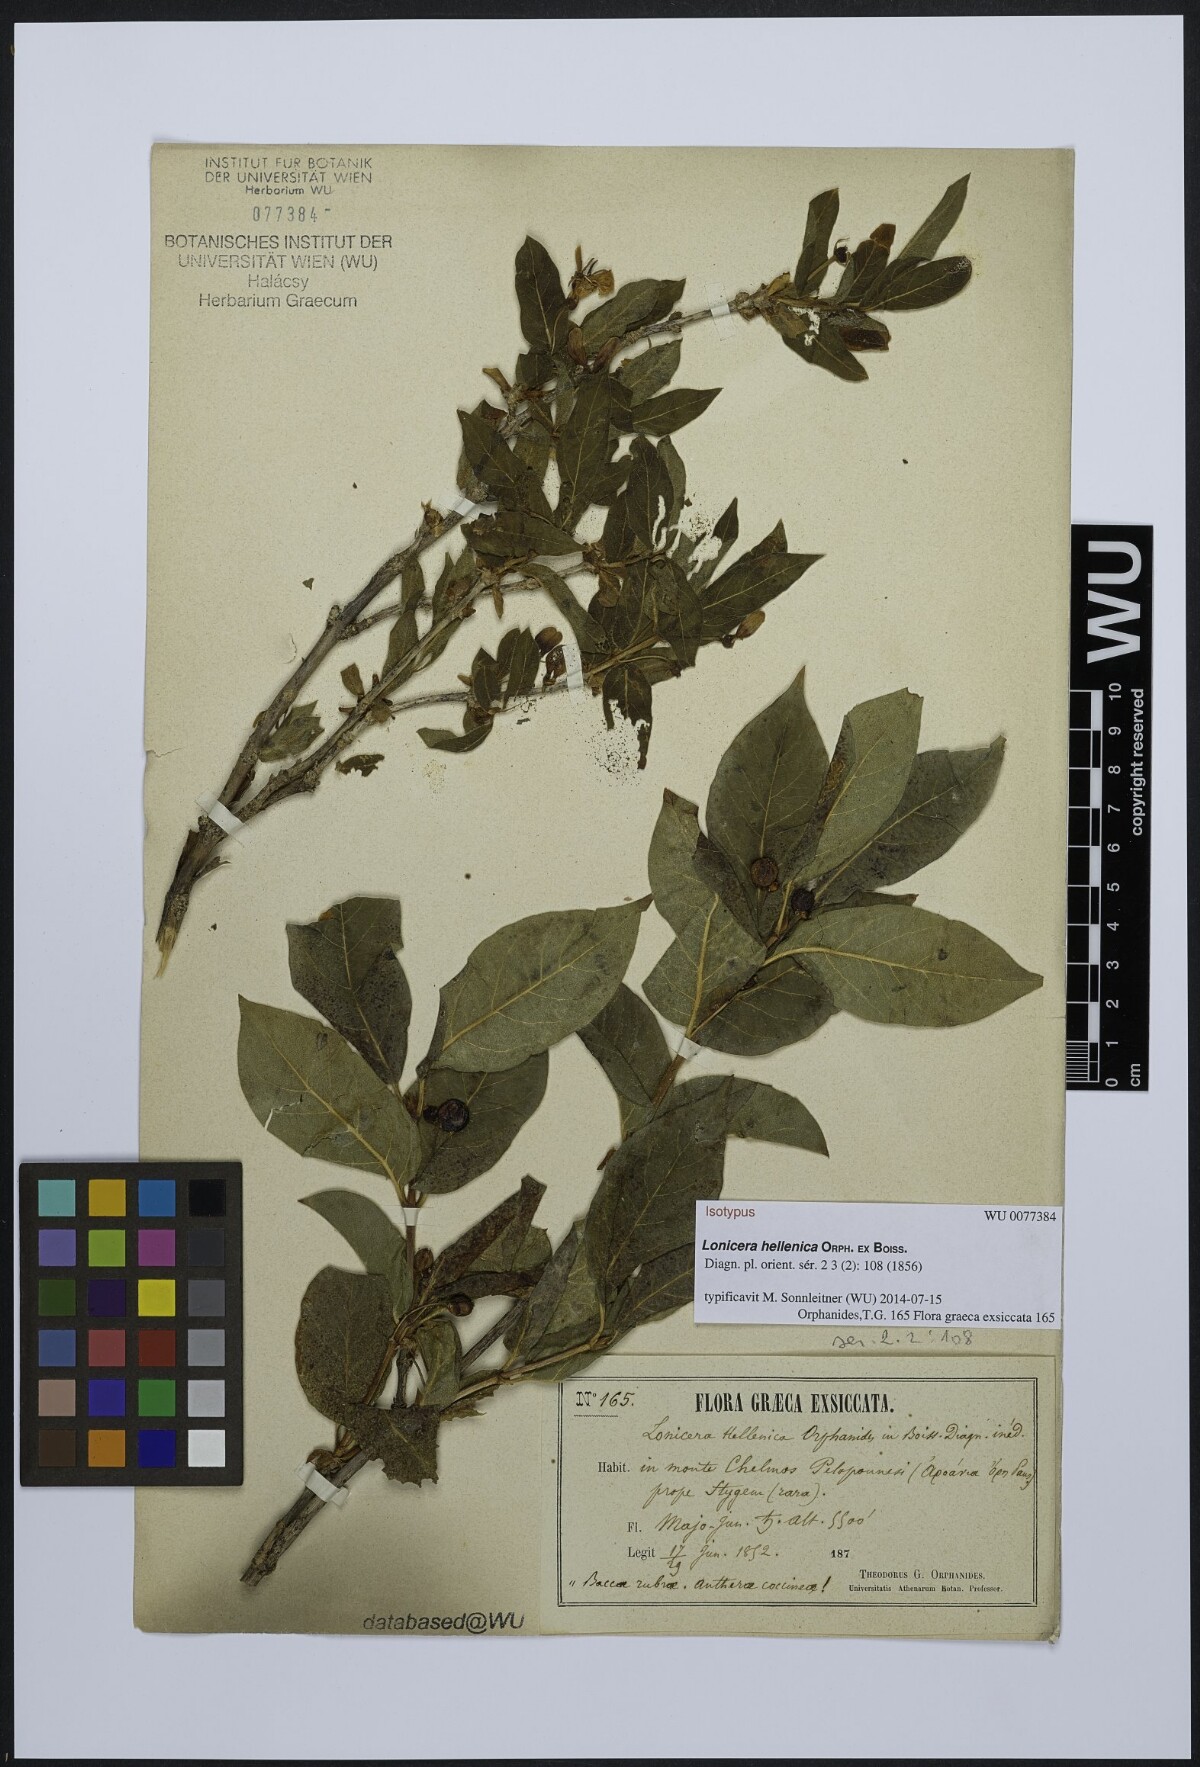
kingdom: Plantae
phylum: Tracheophyta
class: Magnoliopsida
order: Dipsacales
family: Caprifoliaceae
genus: Lonicera
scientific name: Lonicera alpigena
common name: Alpine honeysuckle
